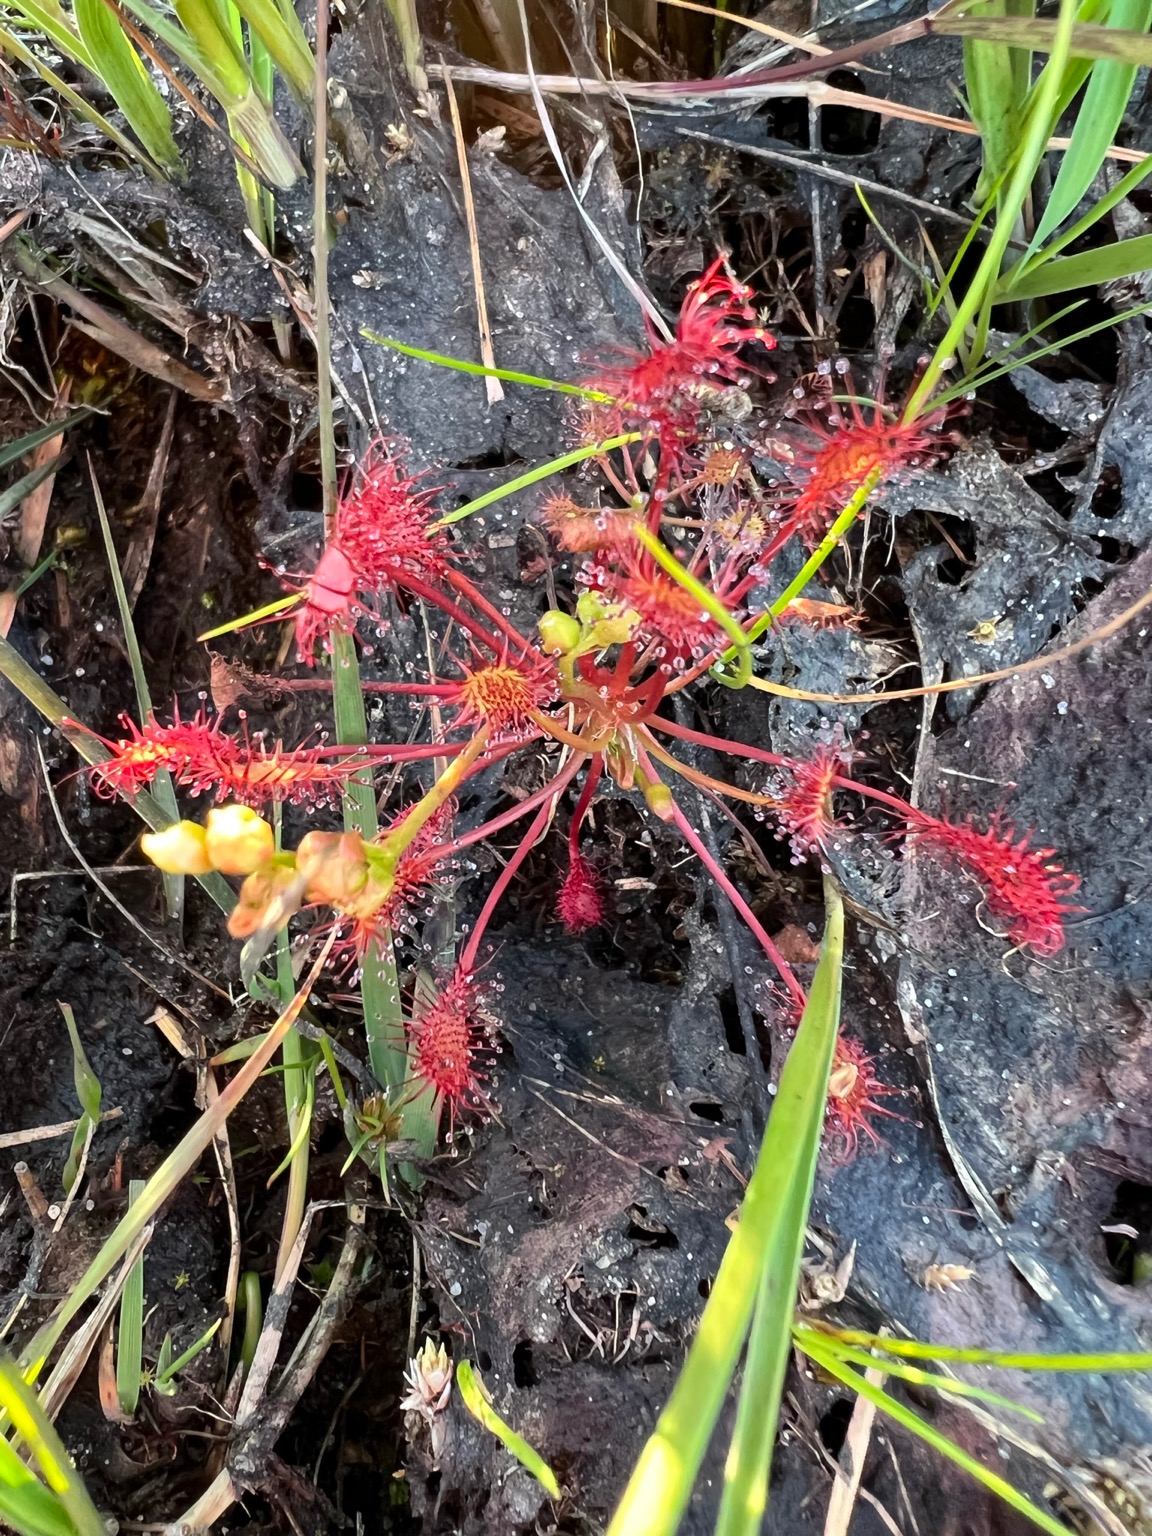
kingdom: Plantae
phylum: Tracheophyta
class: Magnoliopsida
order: Caryophyllales
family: Droseraceae
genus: Drosera
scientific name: Drosera intermedia
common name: Liden soldug
